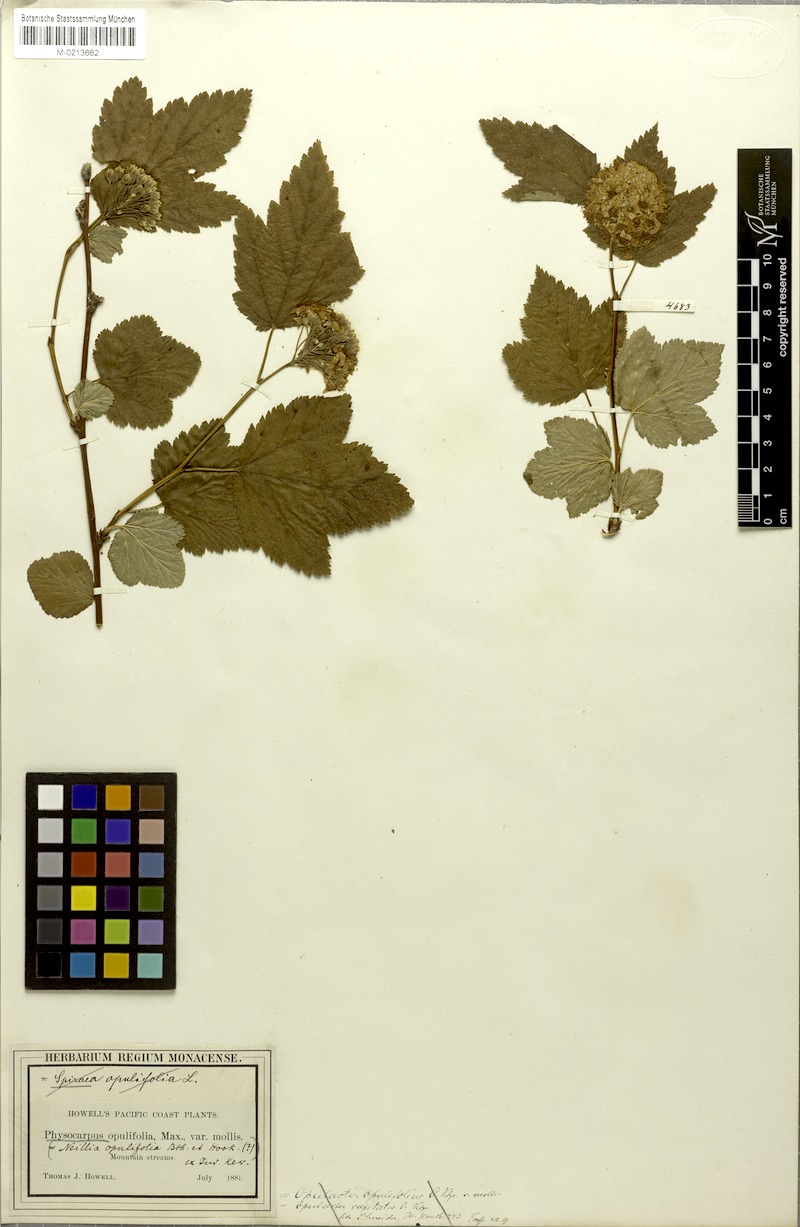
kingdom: Plantae
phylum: Tracheophyta
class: Magnoliopsida
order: Rosales
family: Rosaceae
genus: Physocarpus
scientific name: Physocarpus opulifolius
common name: Ninebark
